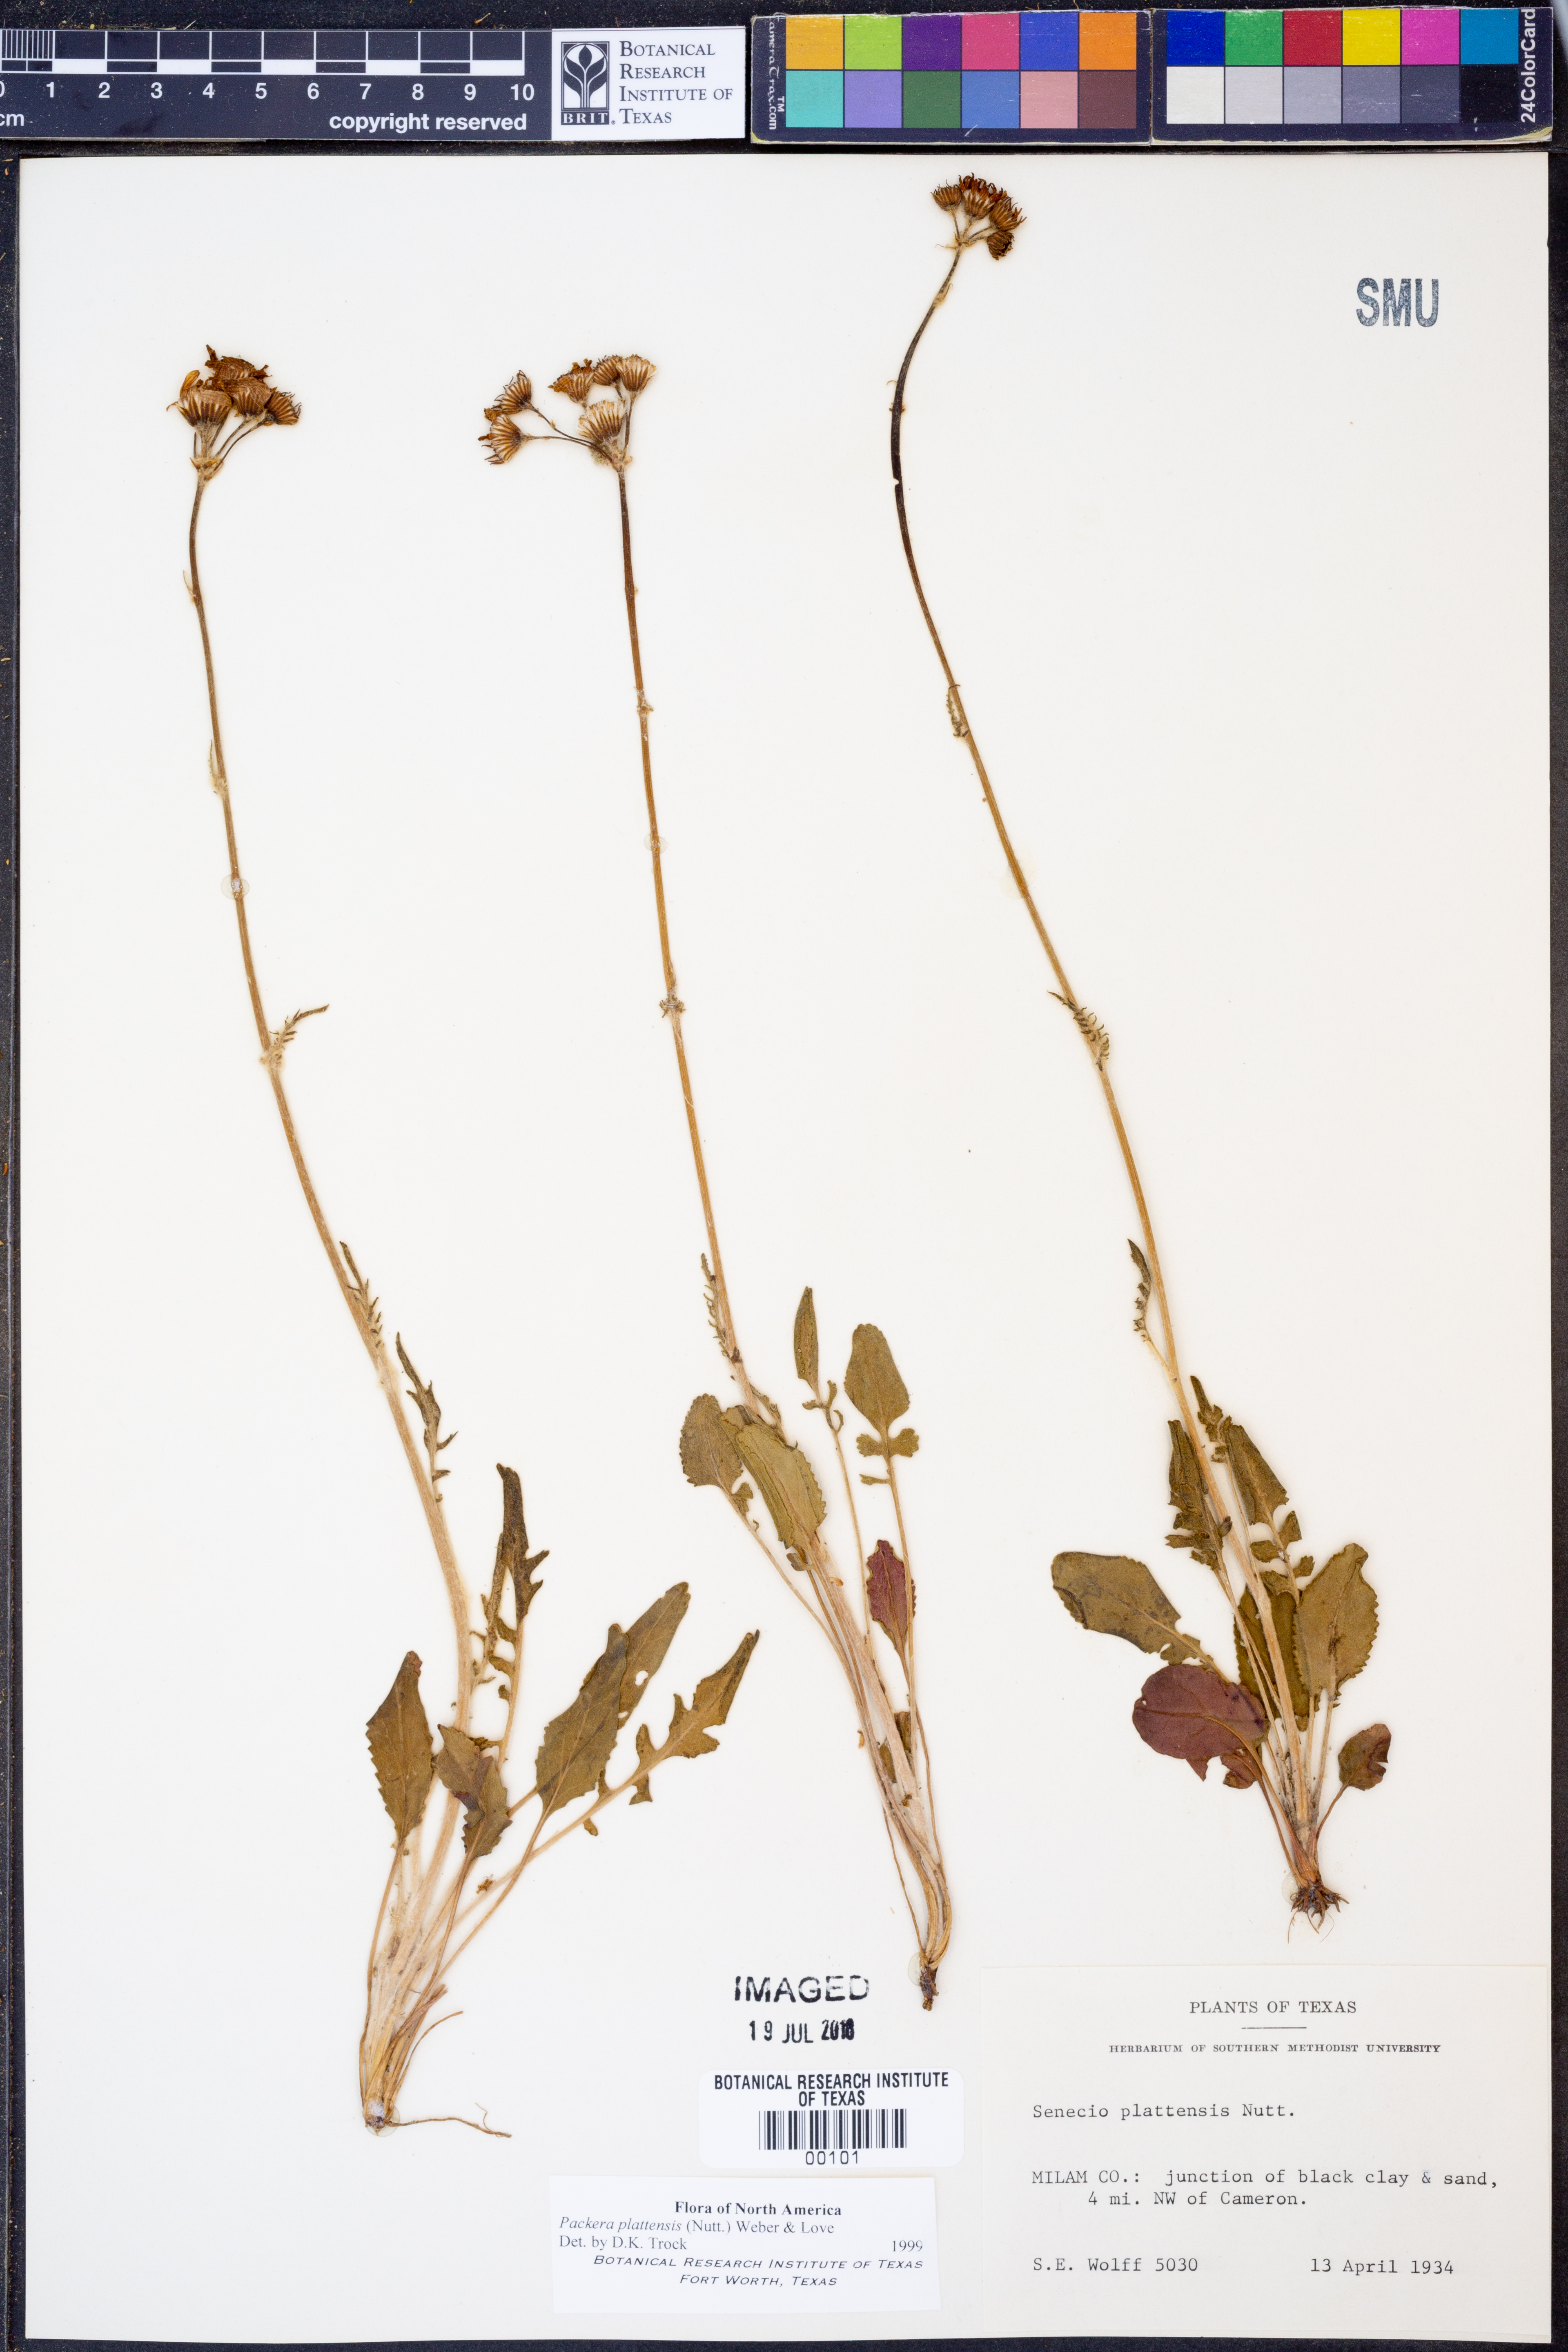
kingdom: Plantae
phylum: Tracheophyta
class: Magnoliopsida
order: Asterales
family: Asteraceae
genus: Packera
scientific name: Packera plattensis
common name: Prairie groundsel
